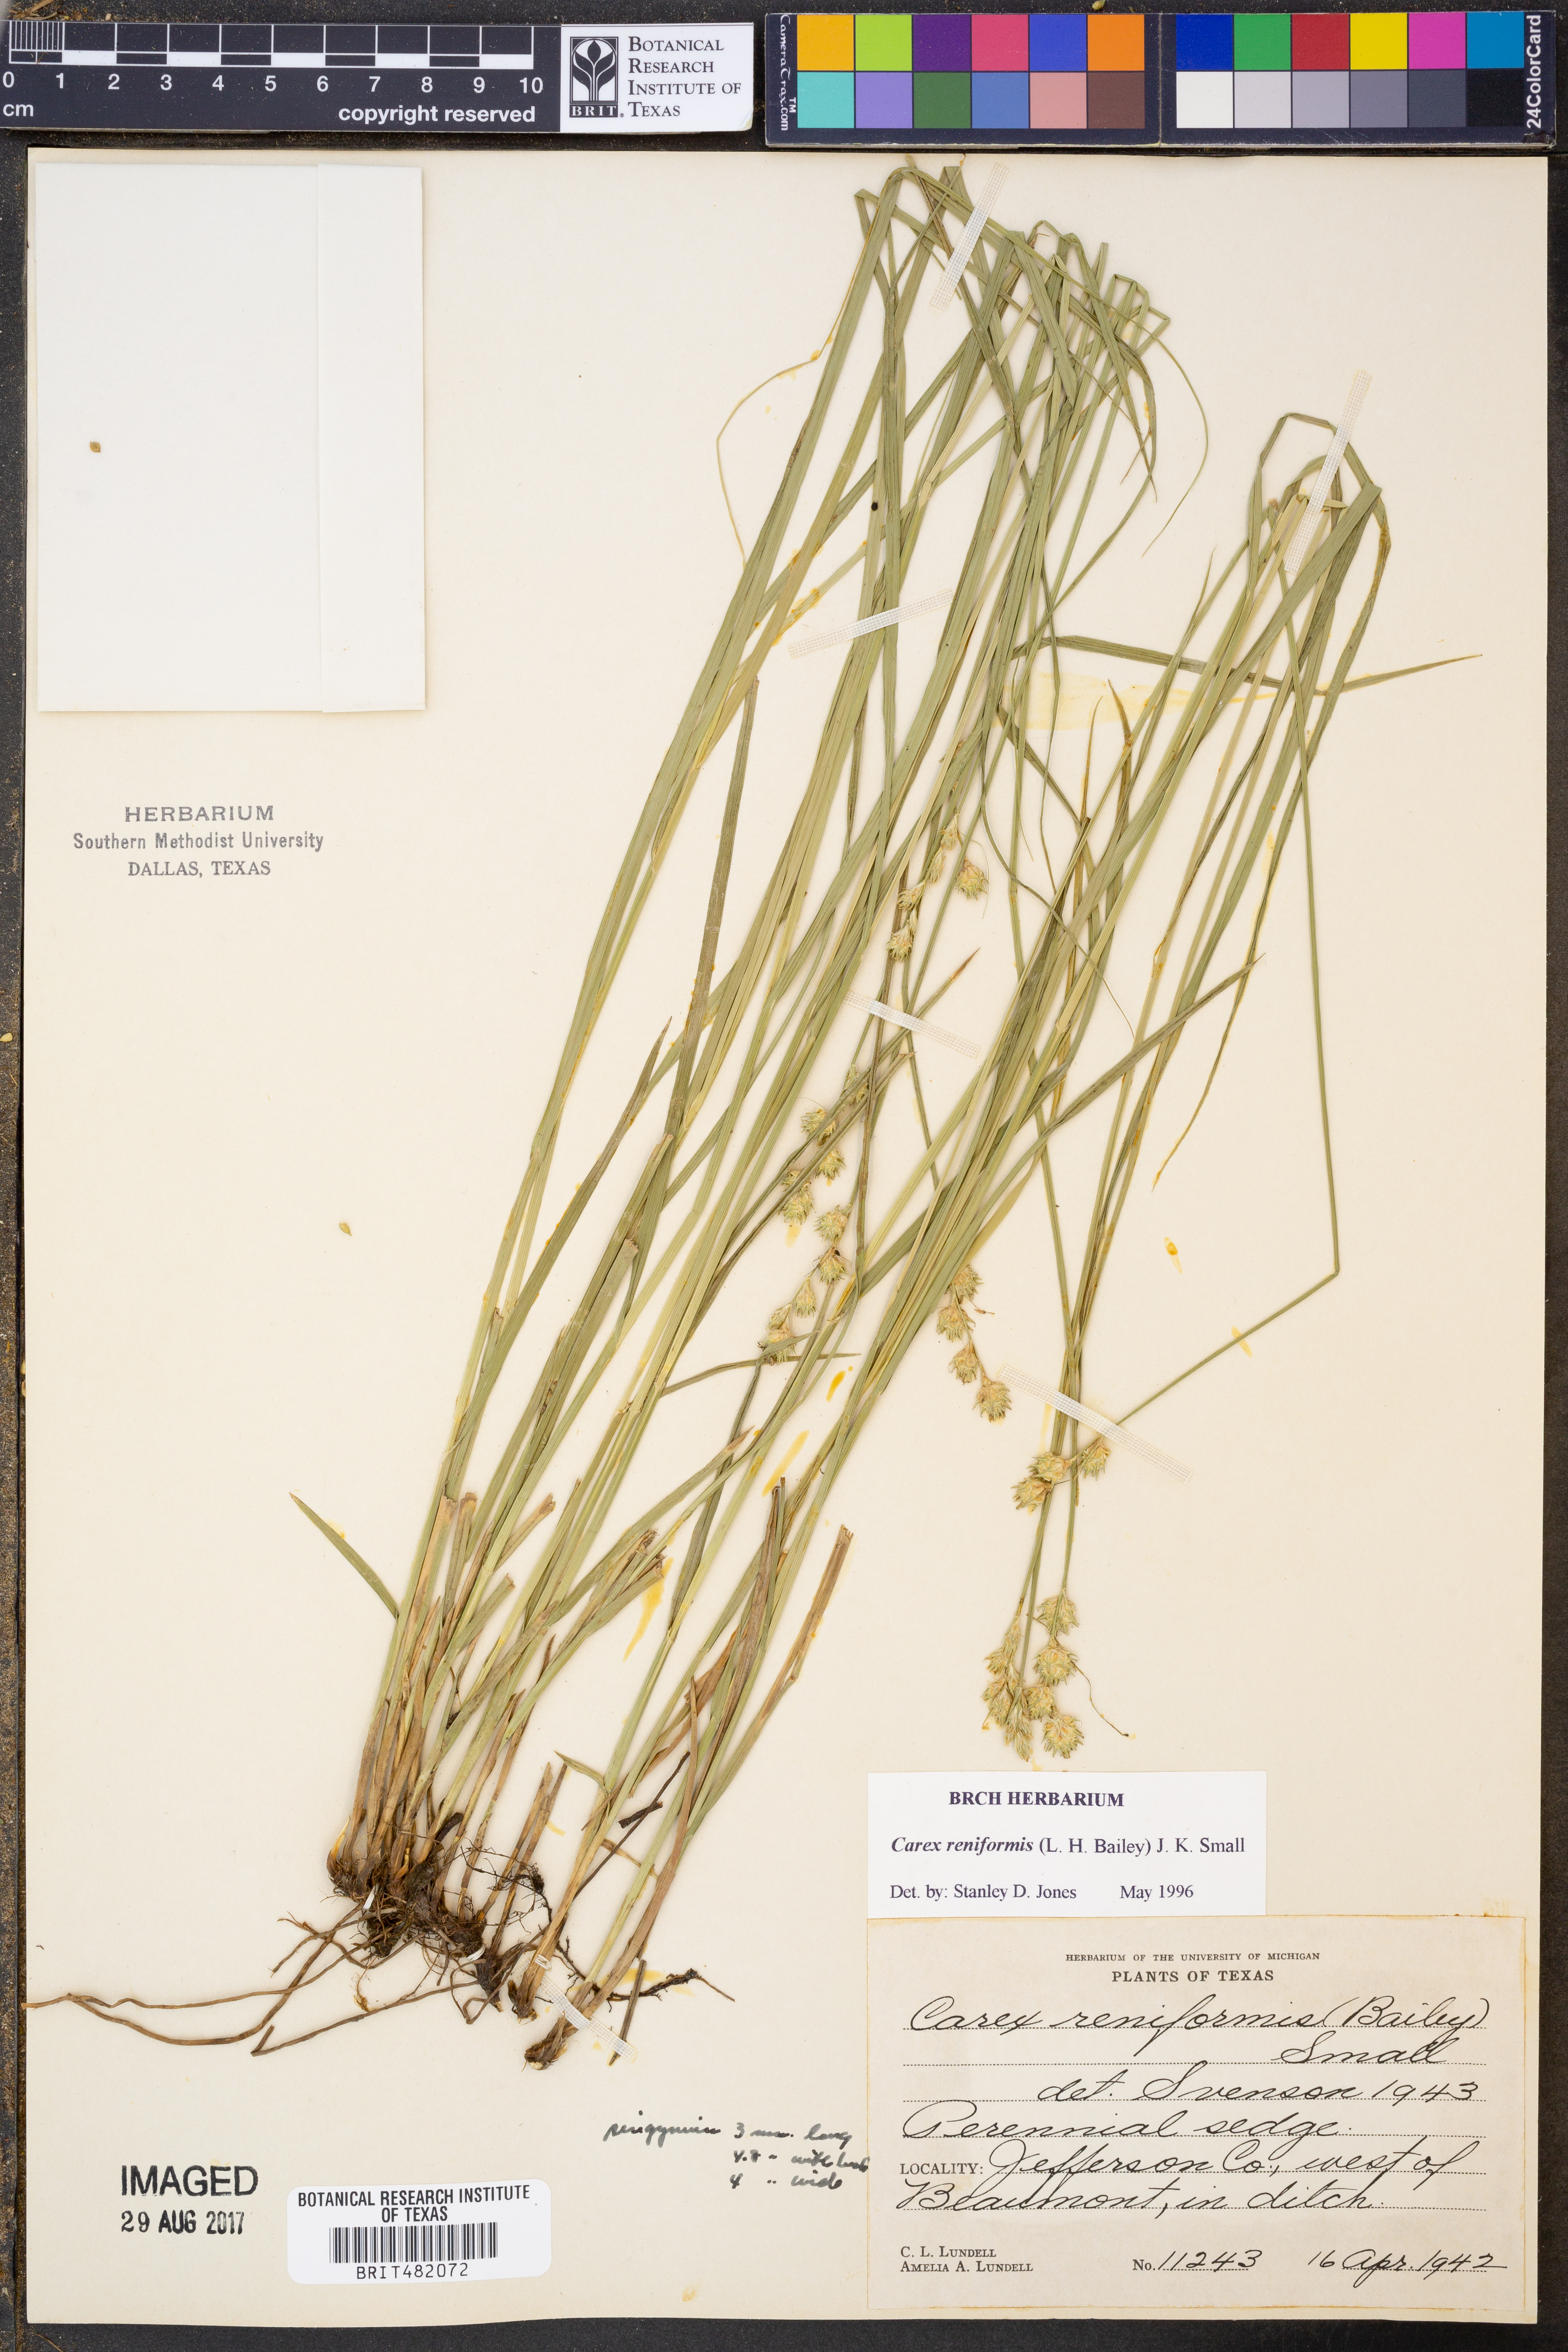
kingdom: Plantae
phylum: Tracheophyta
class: Liliopsida
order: Poales
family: Cyperaceae
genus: Carex
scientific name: Carex reniformis
